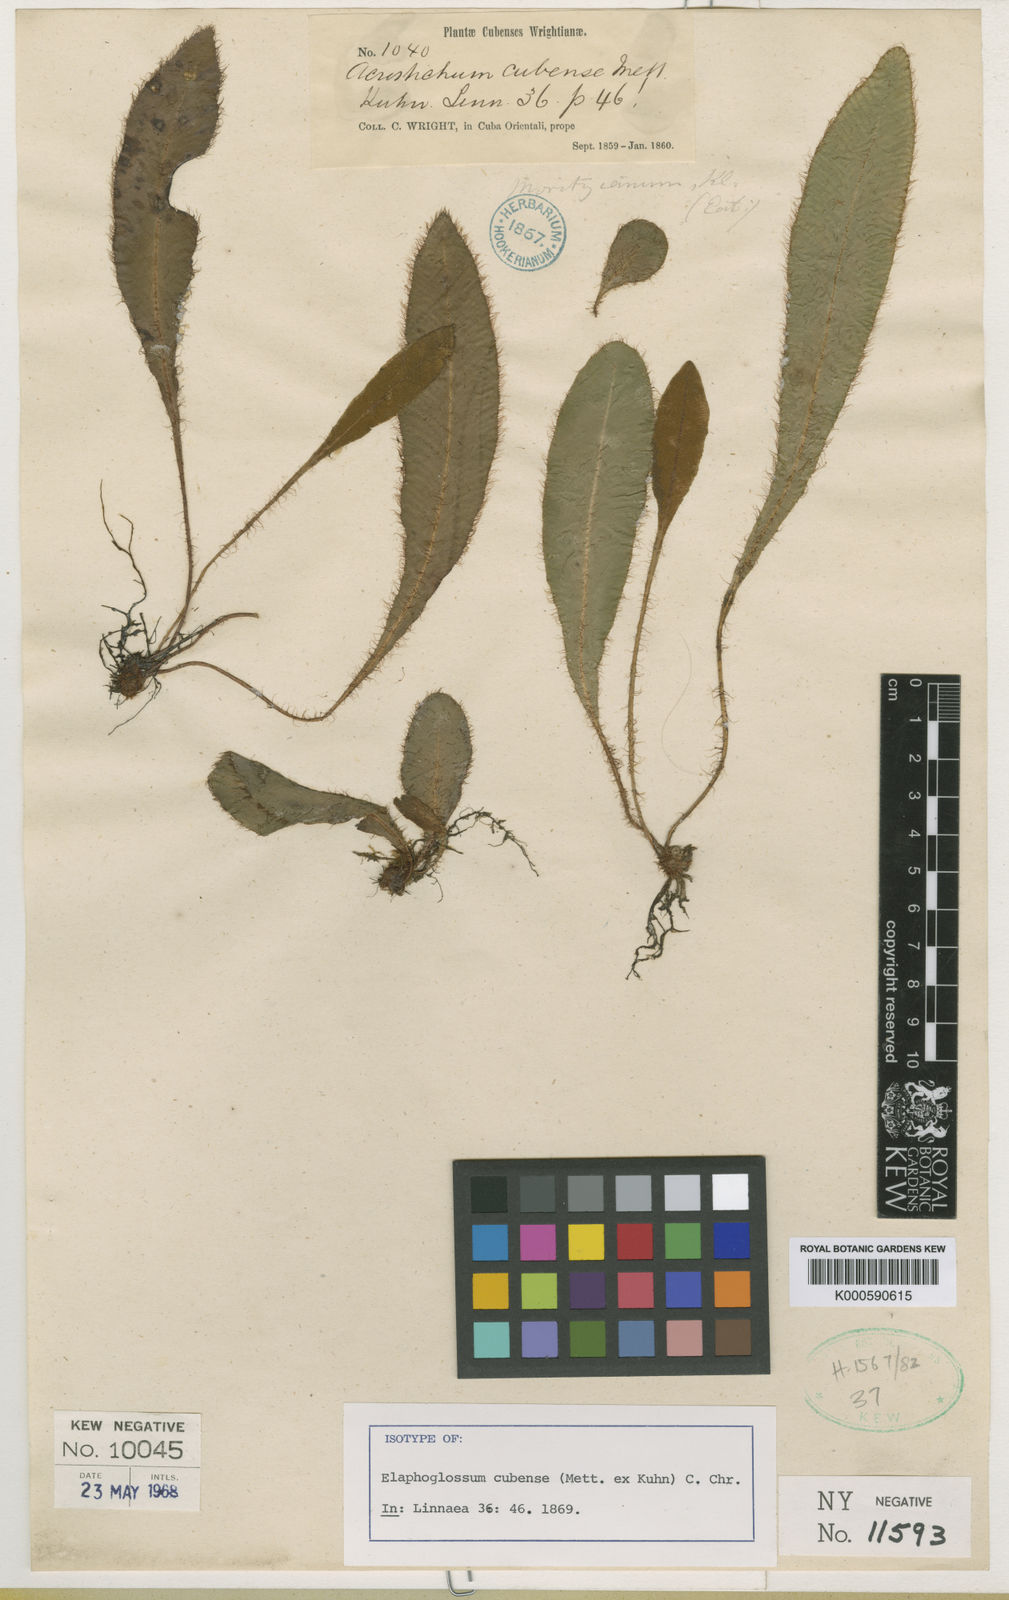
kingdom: Plantae
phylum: Tracheophyta
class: Polypodiopsida
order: Polypodiales
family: Dryopteridaceae
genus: Elaphoglossum
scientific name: Elaphoglossum cubense
